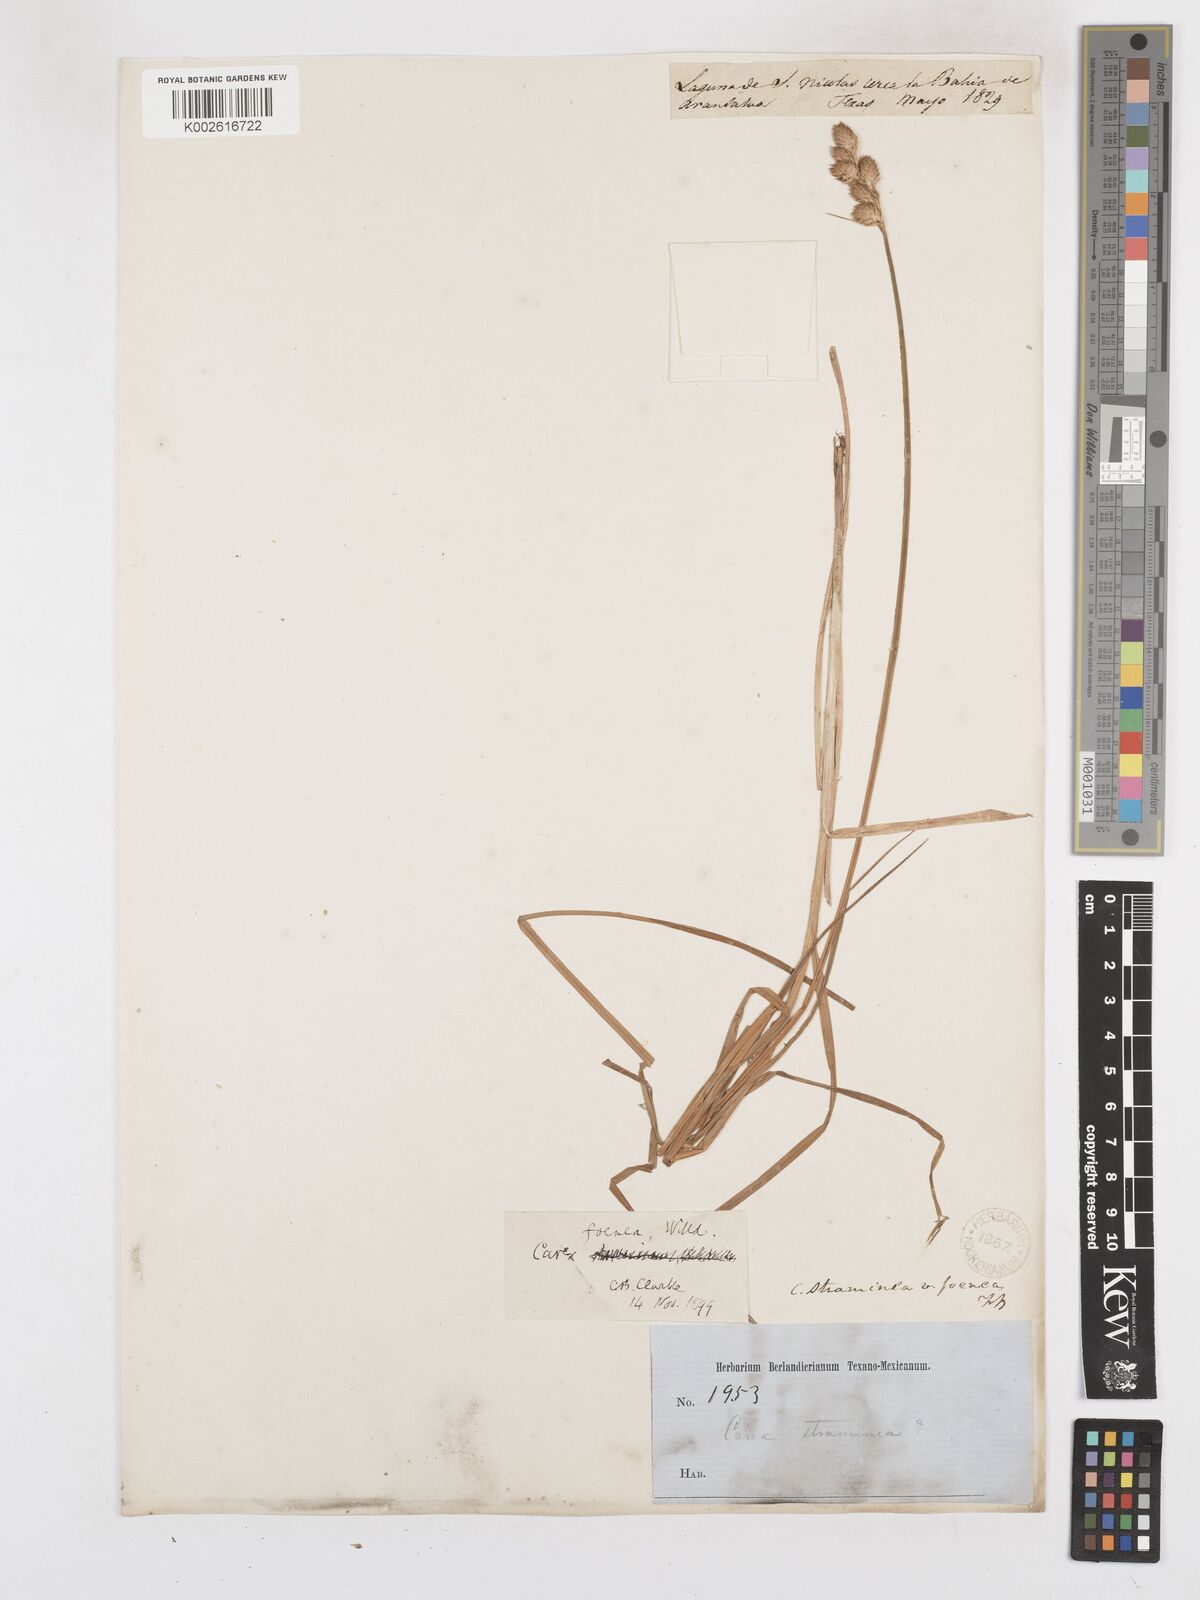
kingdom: Plantae
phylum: Tracheophyta
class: Liliopsida
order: Poales
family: Cyperaceae
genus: Carex
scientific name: Carex argyrantha
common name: Silvery-flowered sedge
